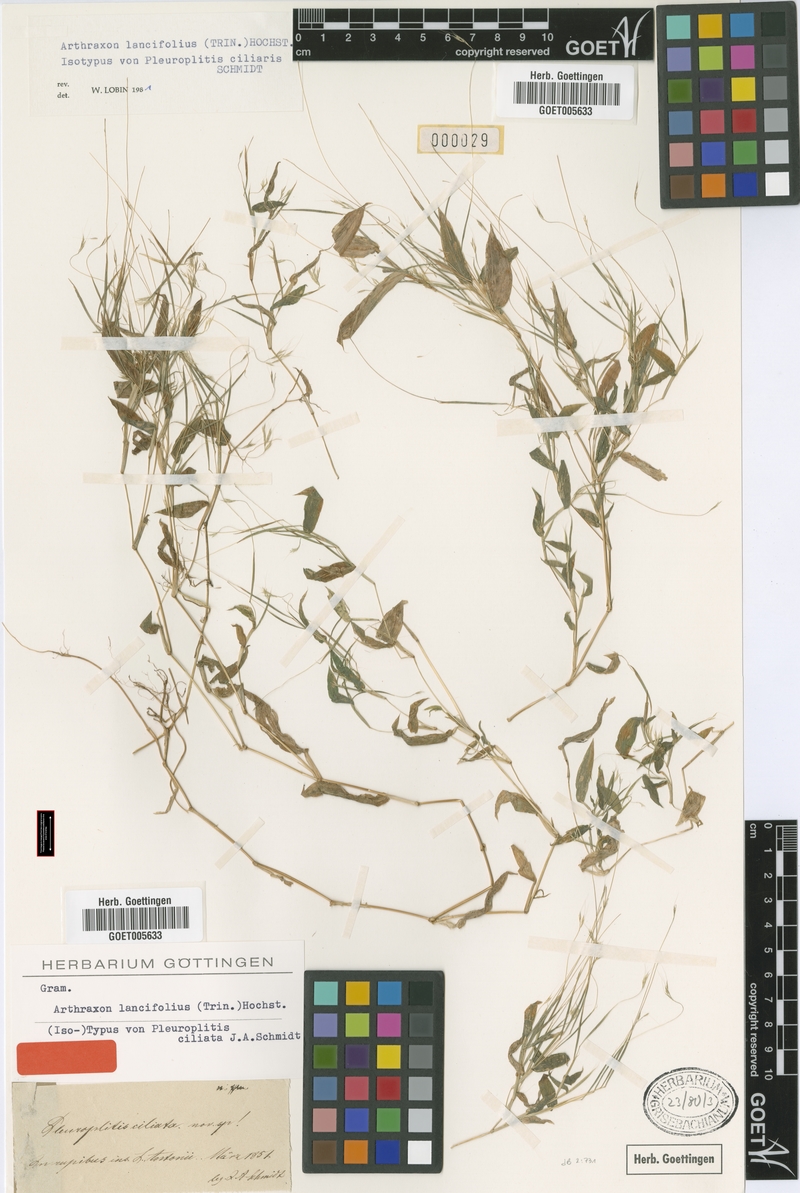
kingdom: Plantae
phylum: Tracheophyta
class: Liliopsida
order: Poales
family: Poaceae
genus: Arthraxon
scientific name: Arthraxon lancifolius
